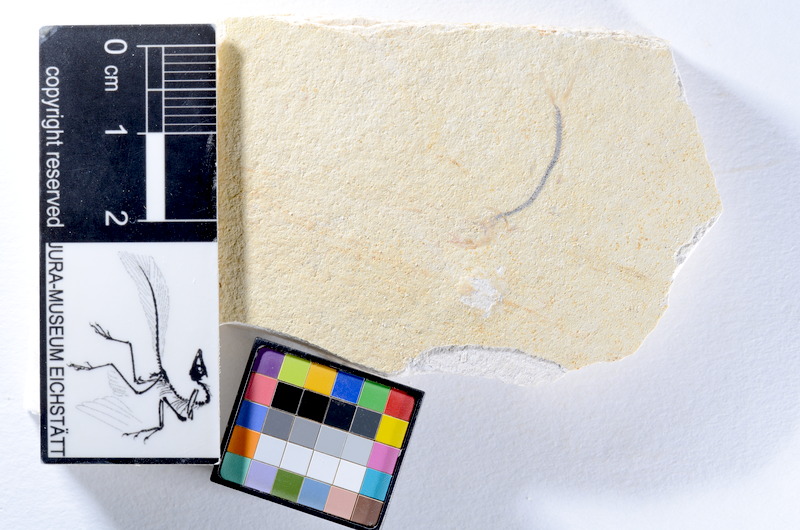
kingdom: Animalia
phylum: Chordata
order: Salmoniformes
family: Orthogonikleithridae
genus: Orthogonikleithrus
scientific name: Orthogonikleithrus hoelli
